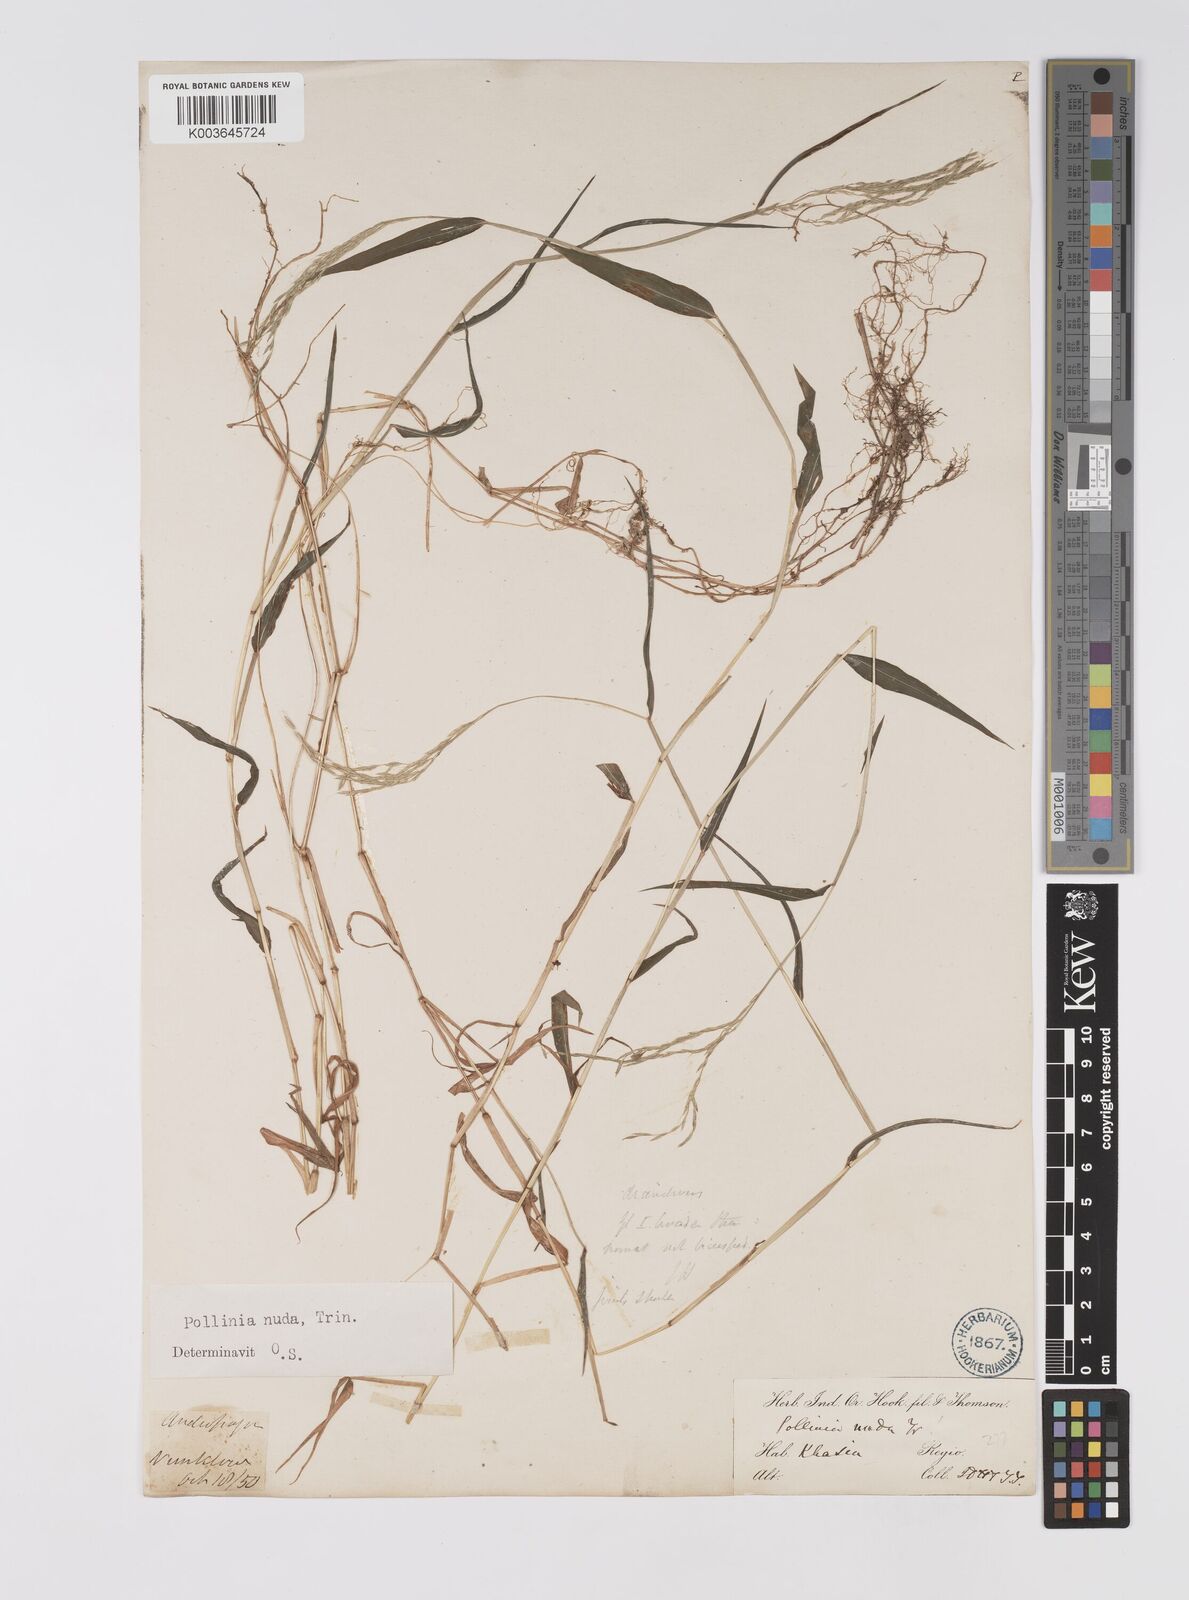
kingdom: Plantae
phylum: Tracheophyta
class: Liliopsida
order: Poales
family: Poaceae
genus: Microstegium
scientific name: Microstegium nudum
